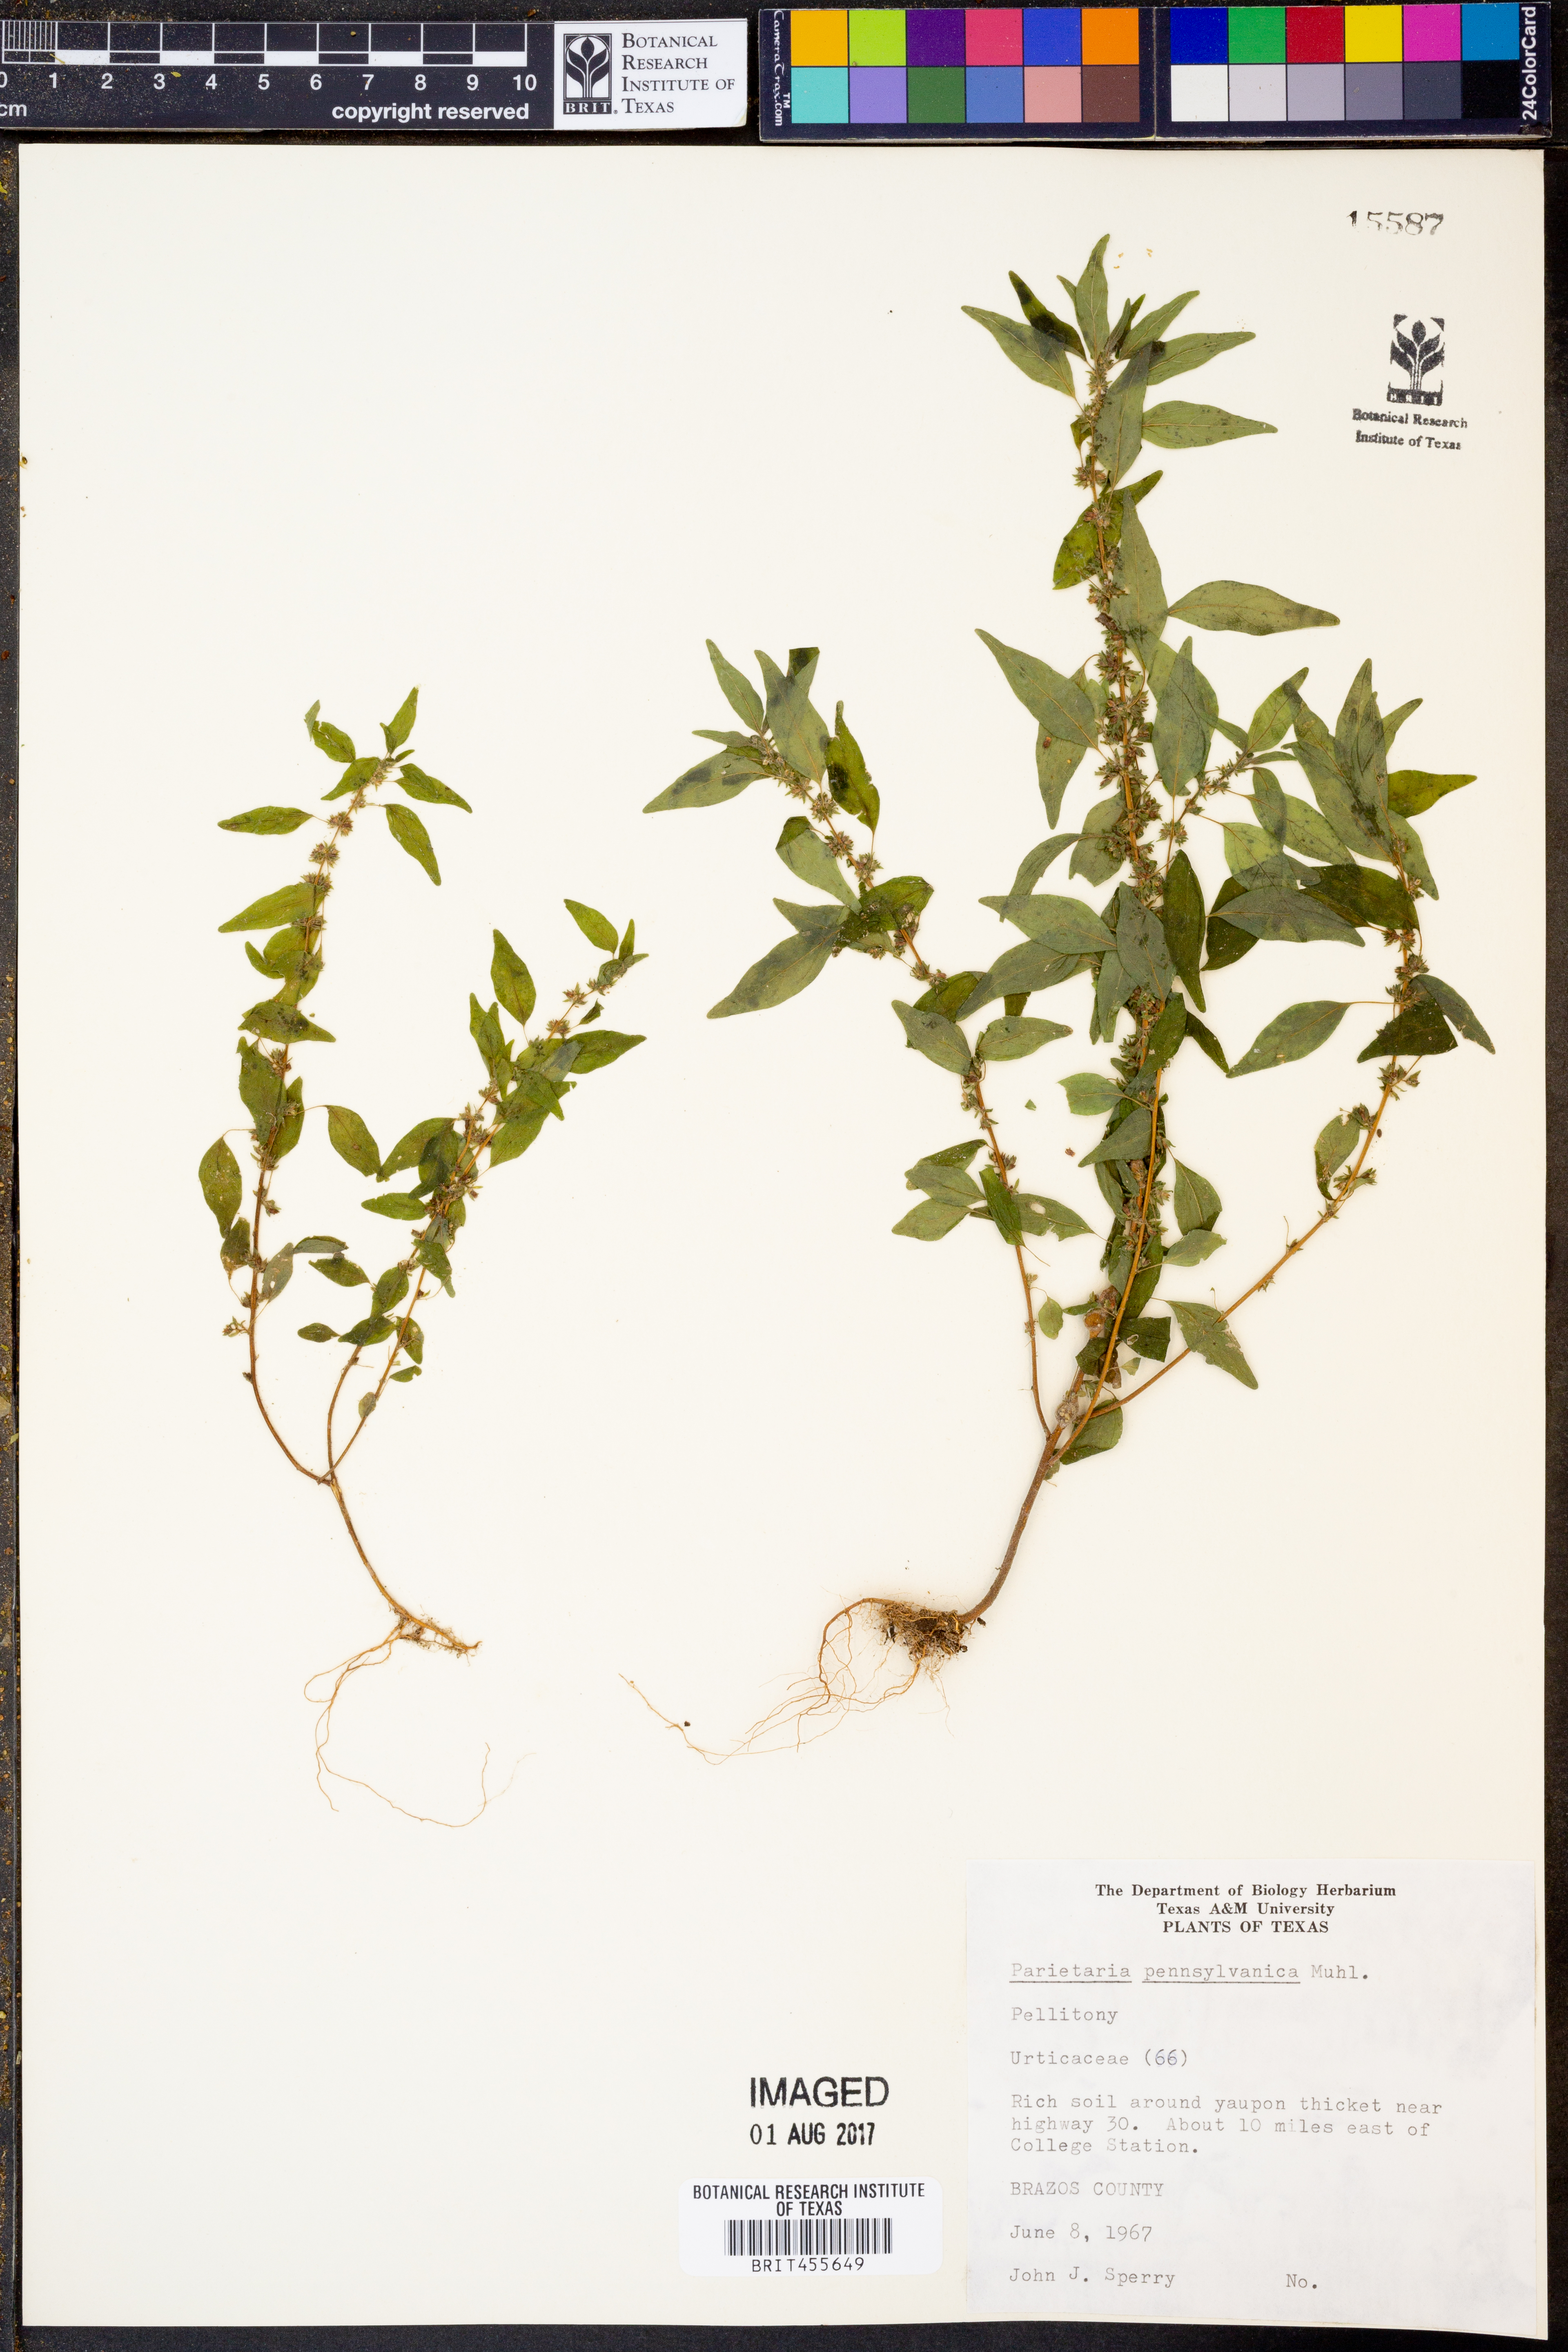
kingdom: Plantae
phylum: Tracheophyta
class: Magnoliopsida
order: Rosales
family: Urticaceae
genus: Parietaria
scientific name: Parietaria pensylvanica
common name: Pennsylvania pellitory
